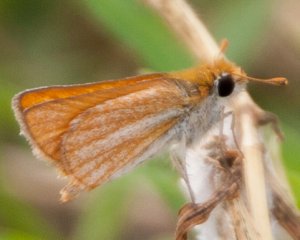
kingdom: Animalia
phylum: Arthropoda
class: Insecta
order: Lepidoptera
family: Hesperiidae
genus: Copaeodes
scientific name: Copaeodes minima
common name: Southern Skipperling
